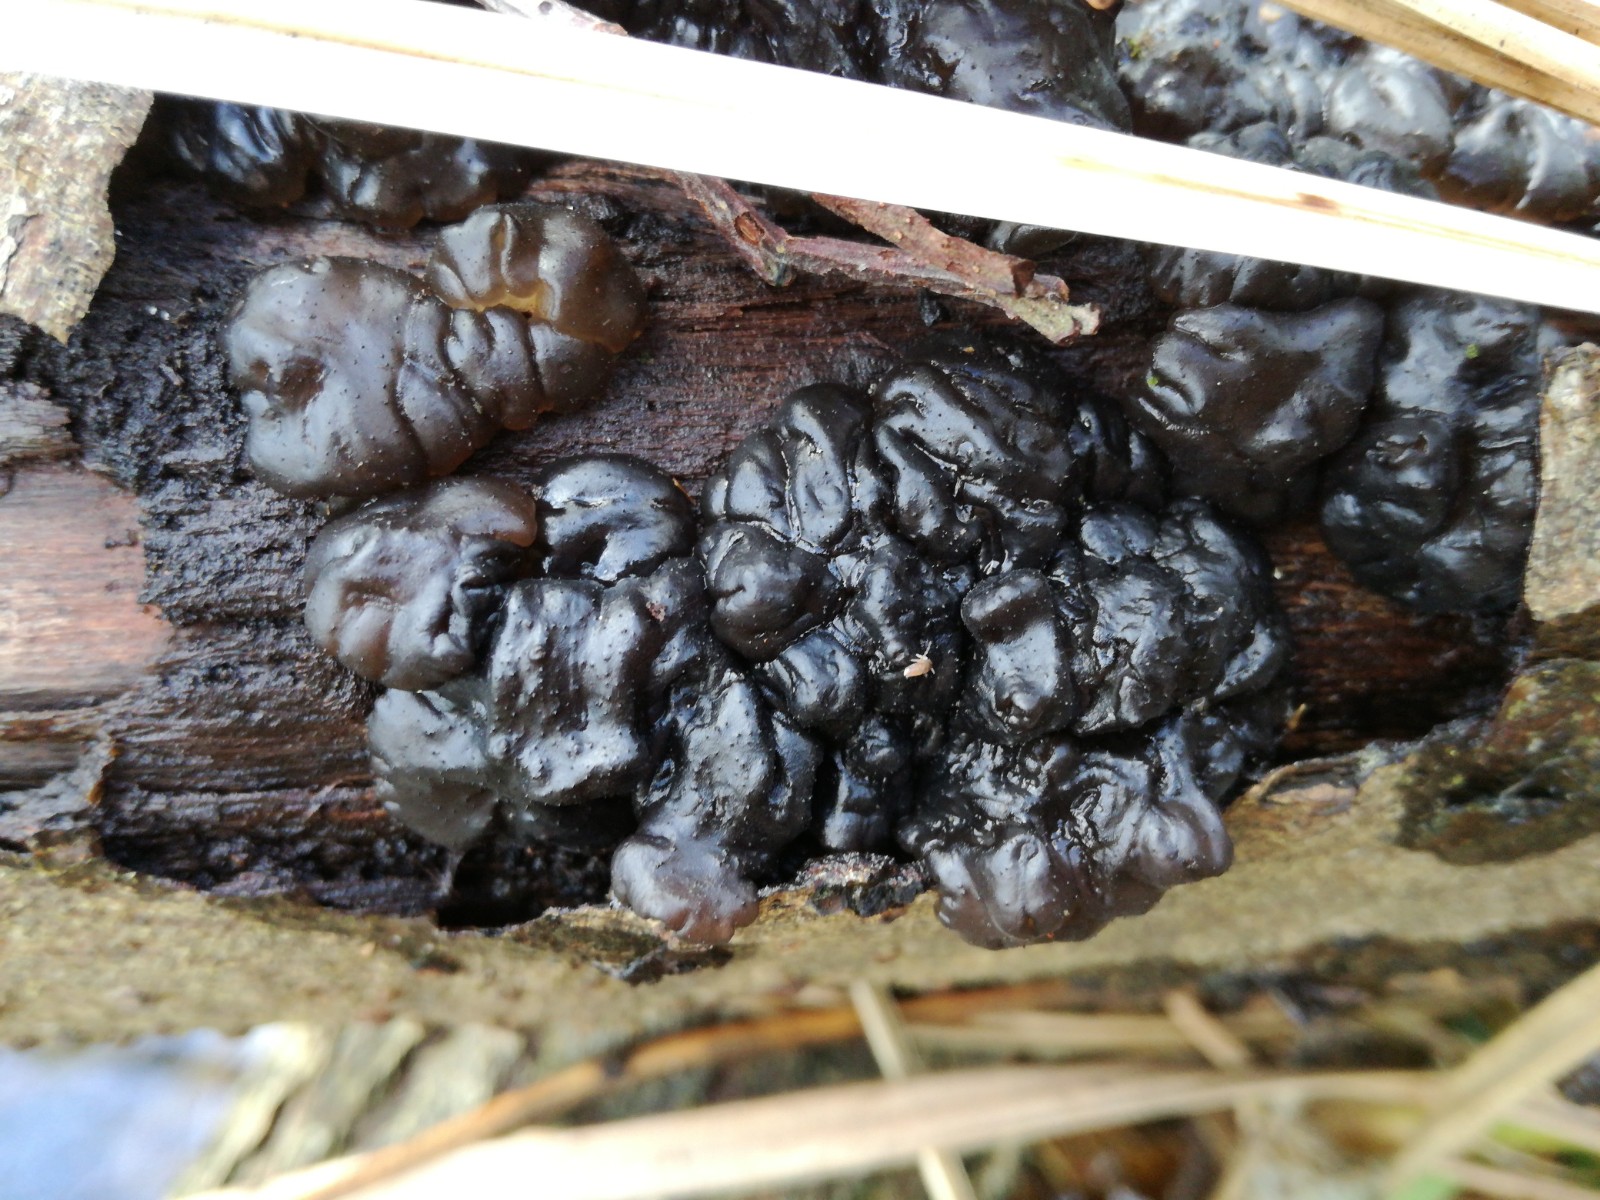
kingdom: Fungi
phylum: Basidiomycota
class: Agaricomycetes
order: Auriculariales
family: Auriculariaceae
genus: Exidia
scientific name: Exidia nigricans
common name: almindelig bævretop
